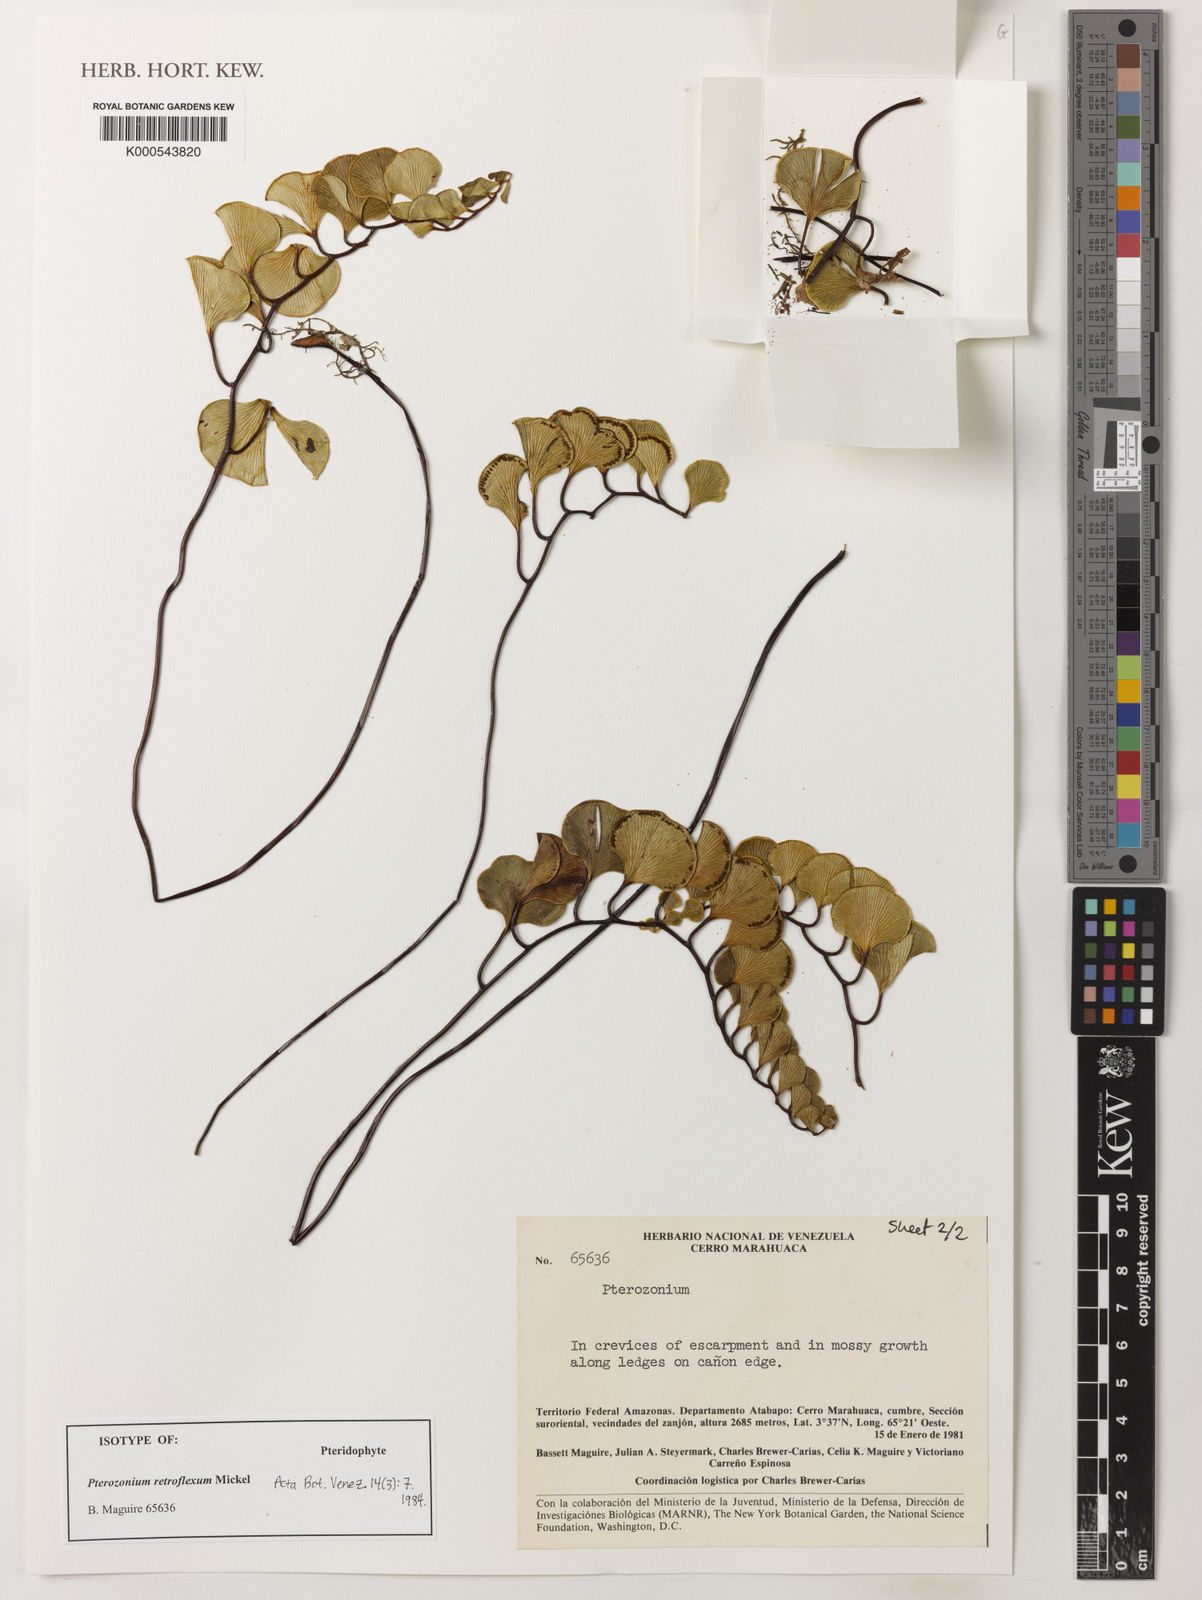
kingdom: Plantae
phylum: Tracheophyta
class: Polypodiopsida
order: Polypodiales
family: Pteridaceae
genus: Pterozonium
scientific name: Pterozonium retroflexum
